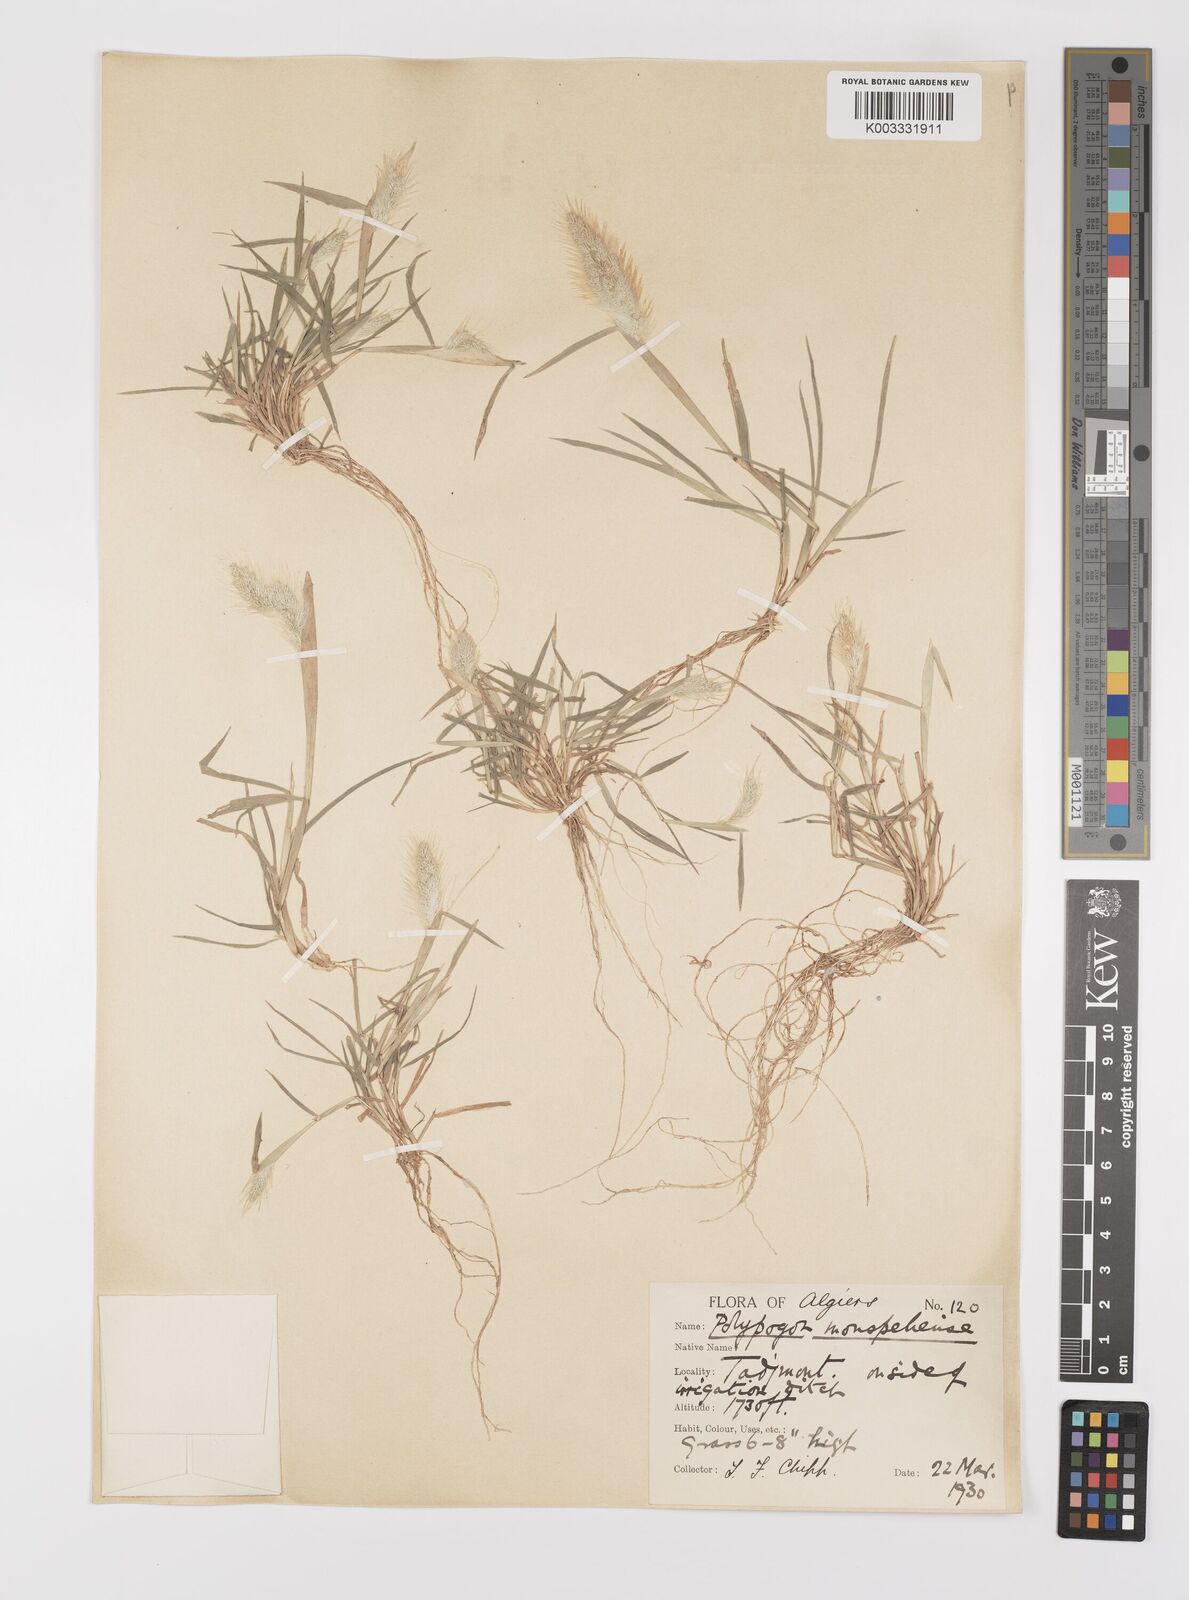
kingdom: Plantae
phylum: Tracheophyta
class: Liliopsida
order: Poales
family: Poaceae
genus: Polypogon
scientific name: Polypogon monspeliensis
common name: Annual rabbitsfoot grass
